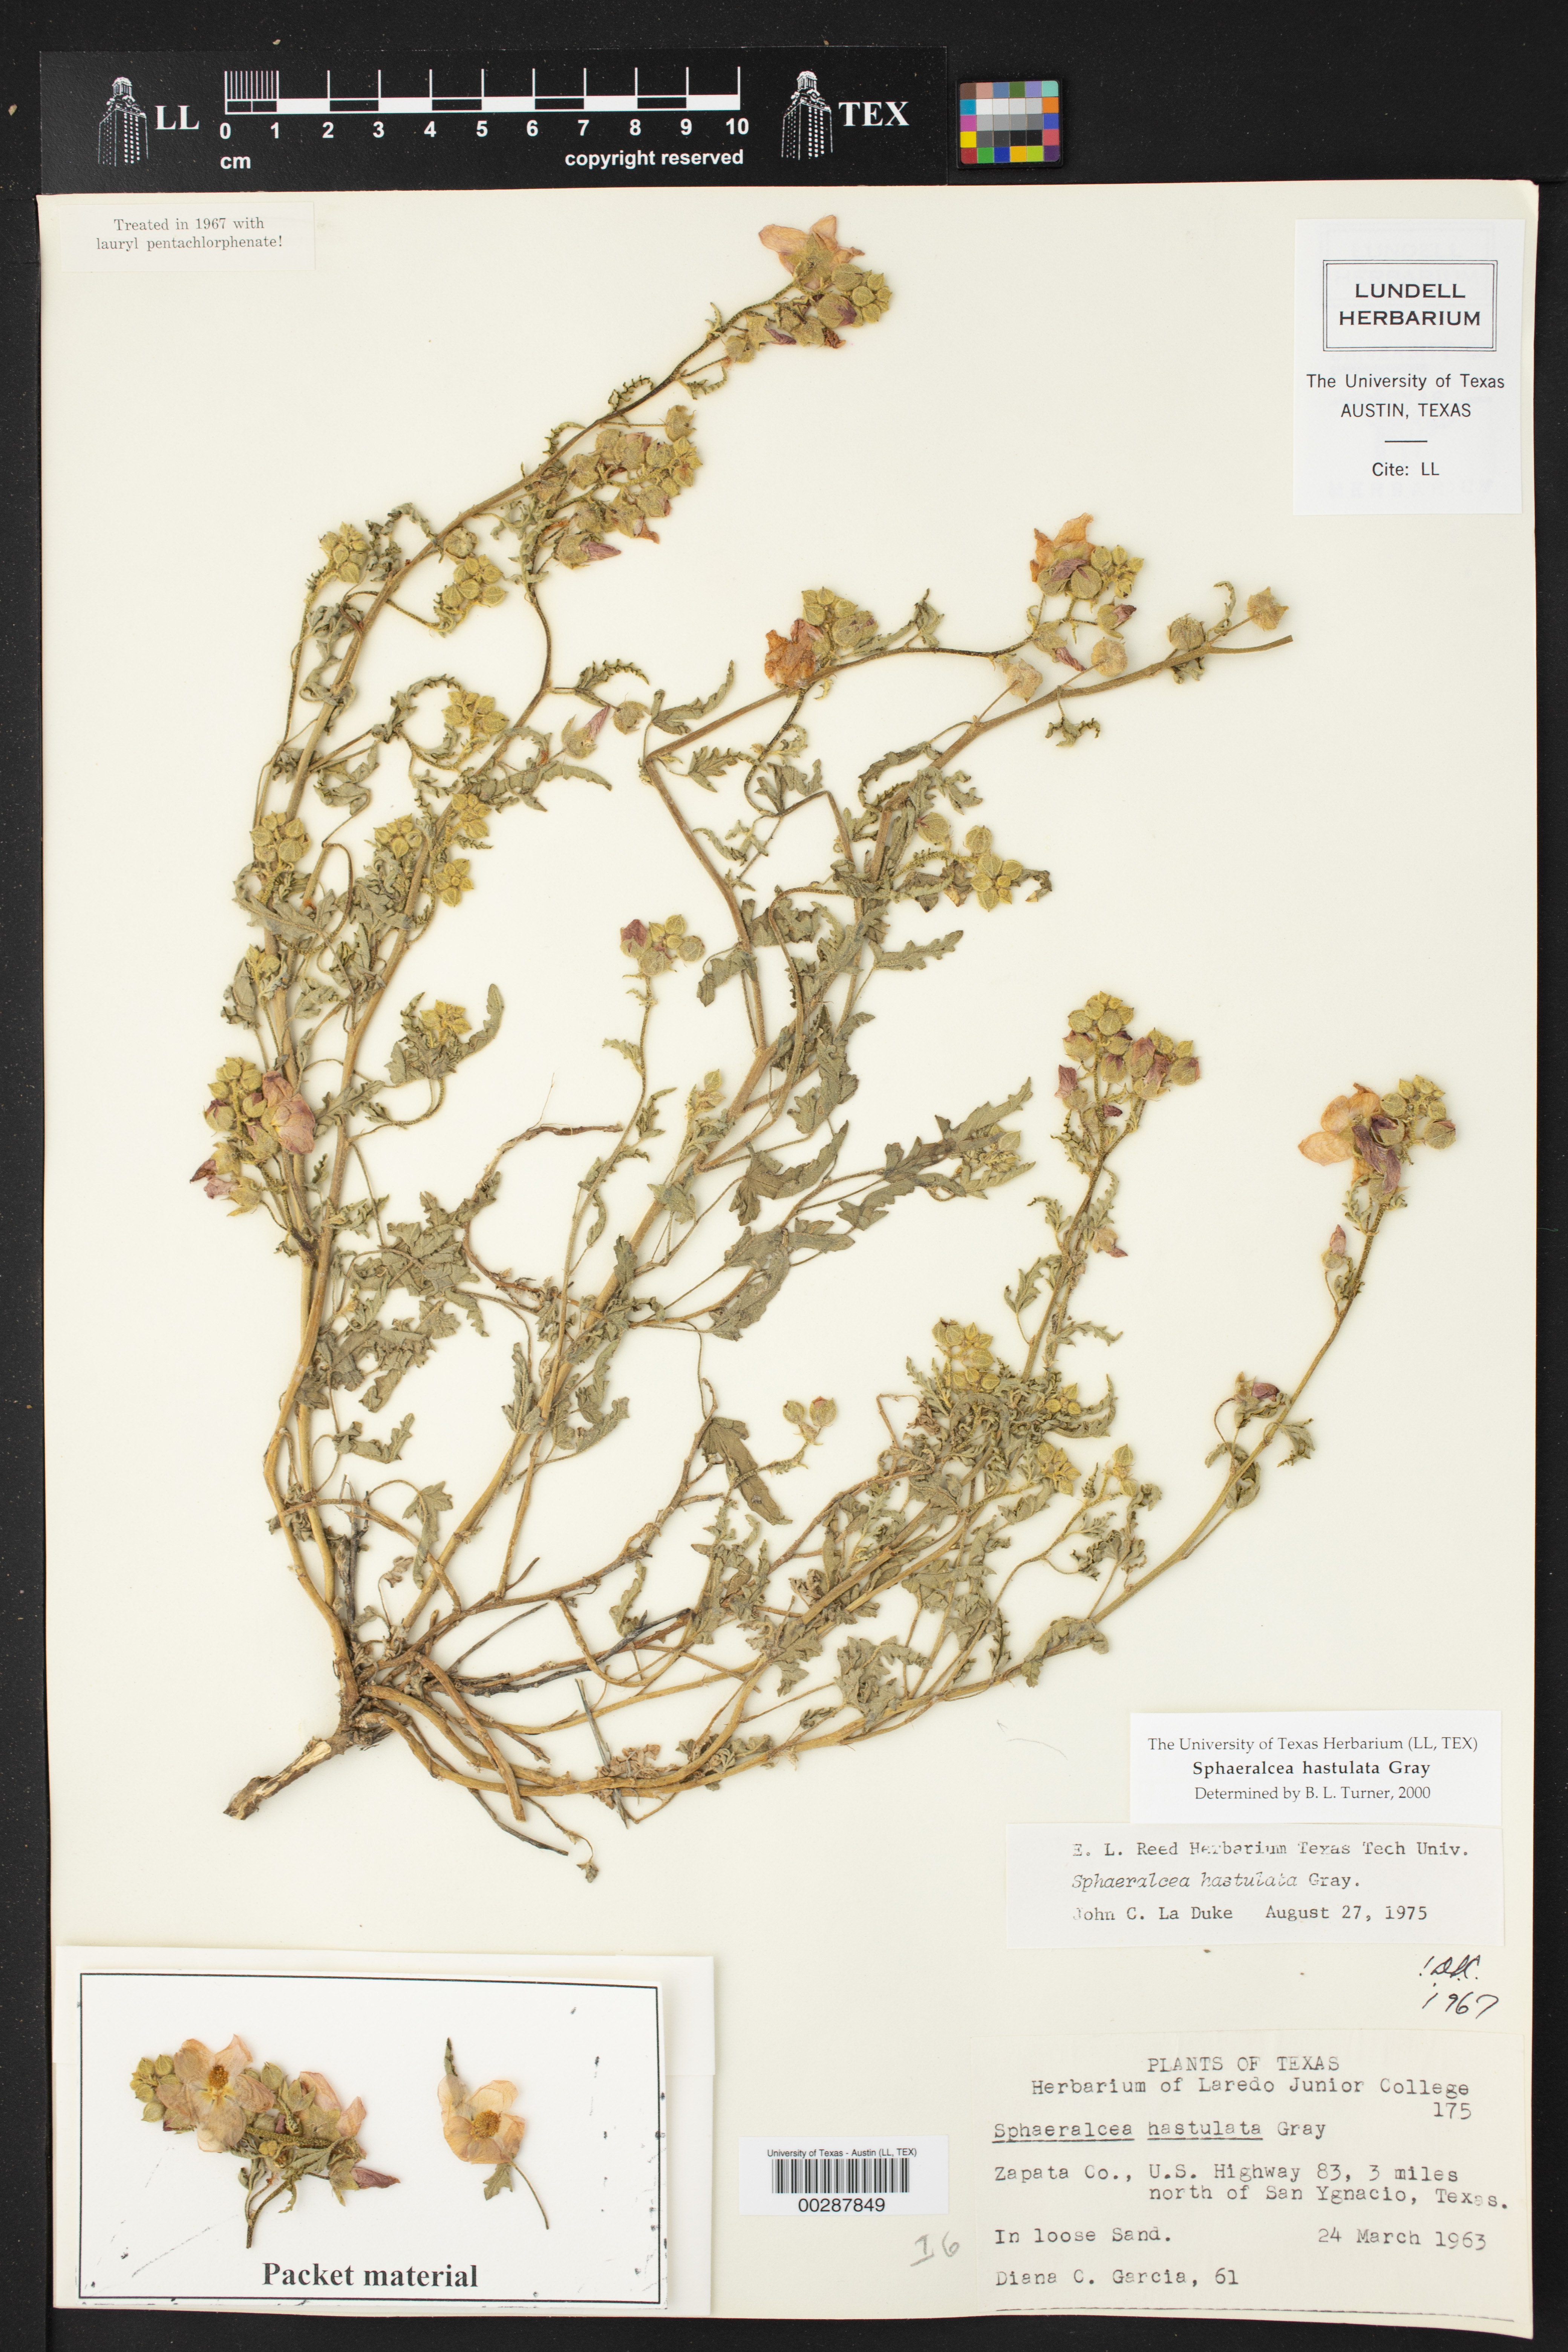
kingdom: Plantae
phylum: Tracheophyta
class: Magnoliopsida
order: Malvales
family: Malvaceae
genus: Sphaeralcea
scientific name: Sphaeralcea hastulata
